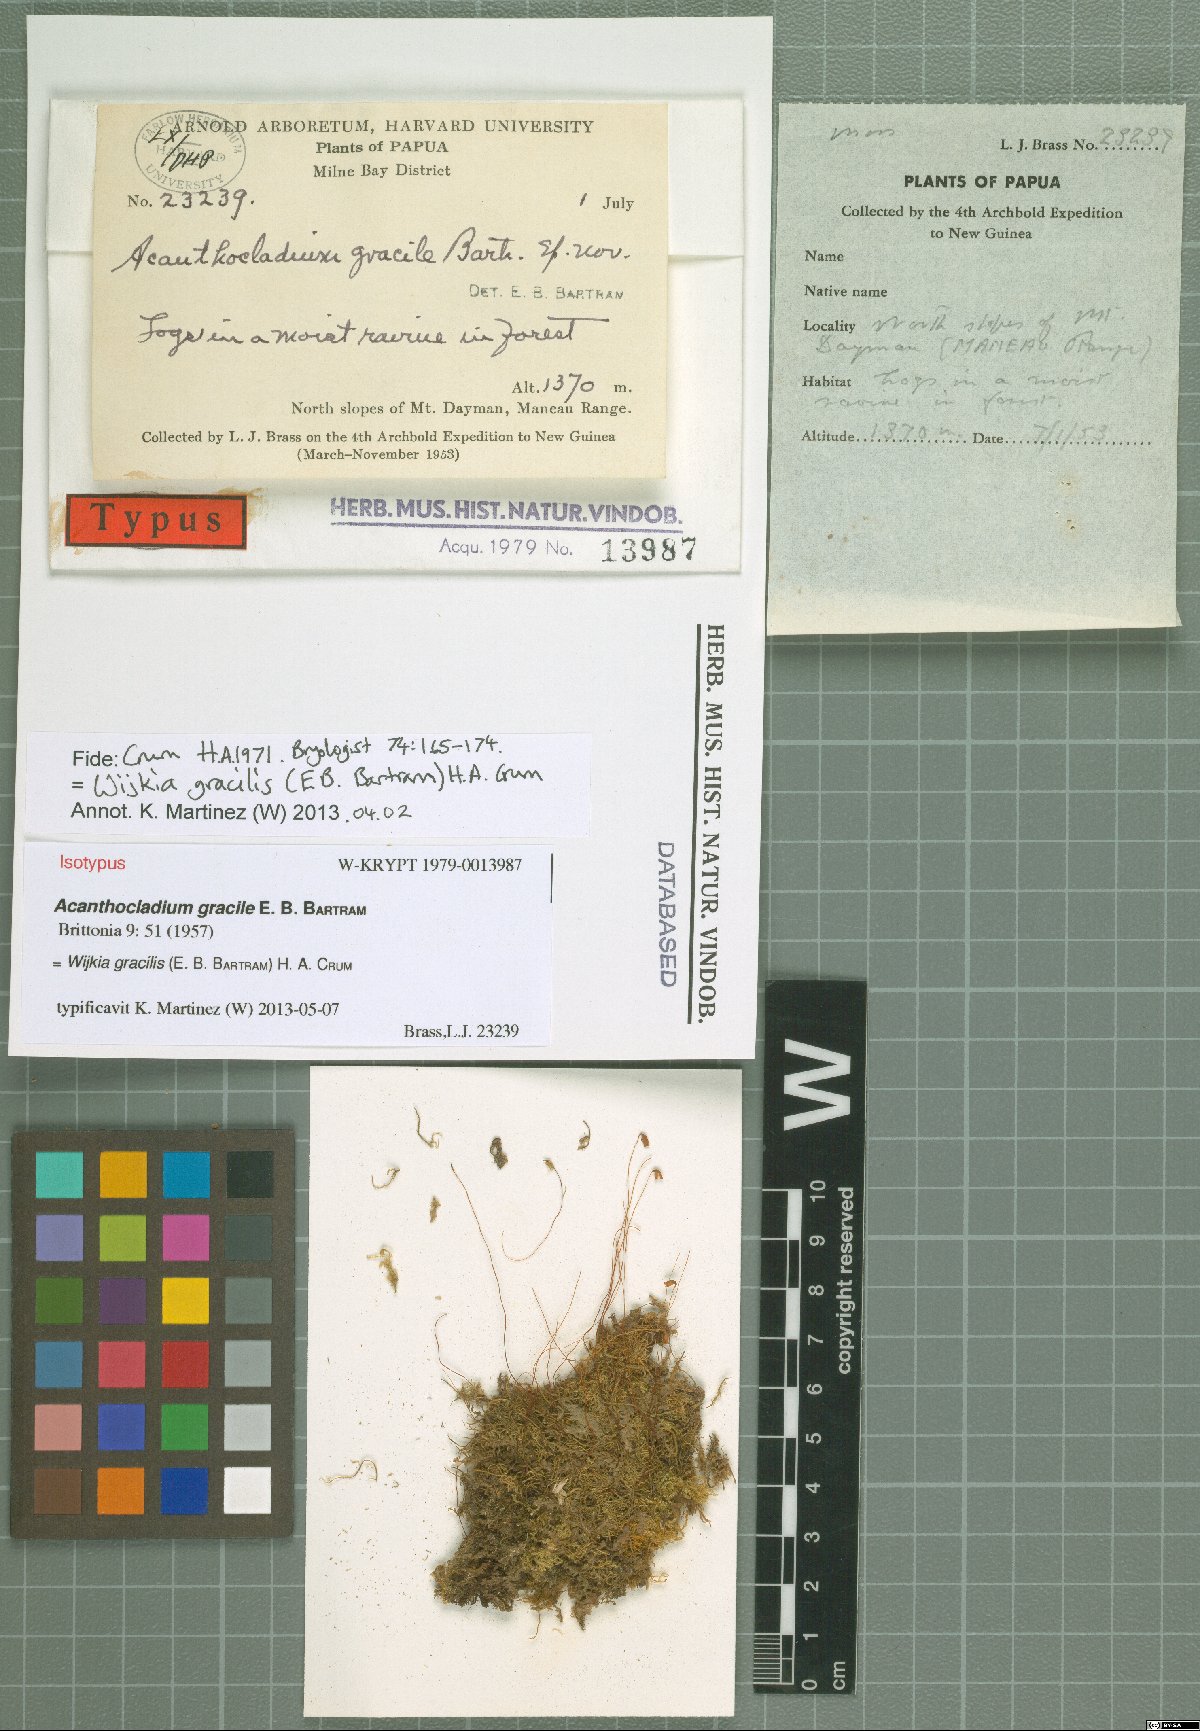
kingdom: Plantae
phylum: Bryophyta
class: Bryopsida
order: Hypnales
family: Pylaisiadelphaceae
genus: Wijkia
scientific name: Wijkia gracilis
